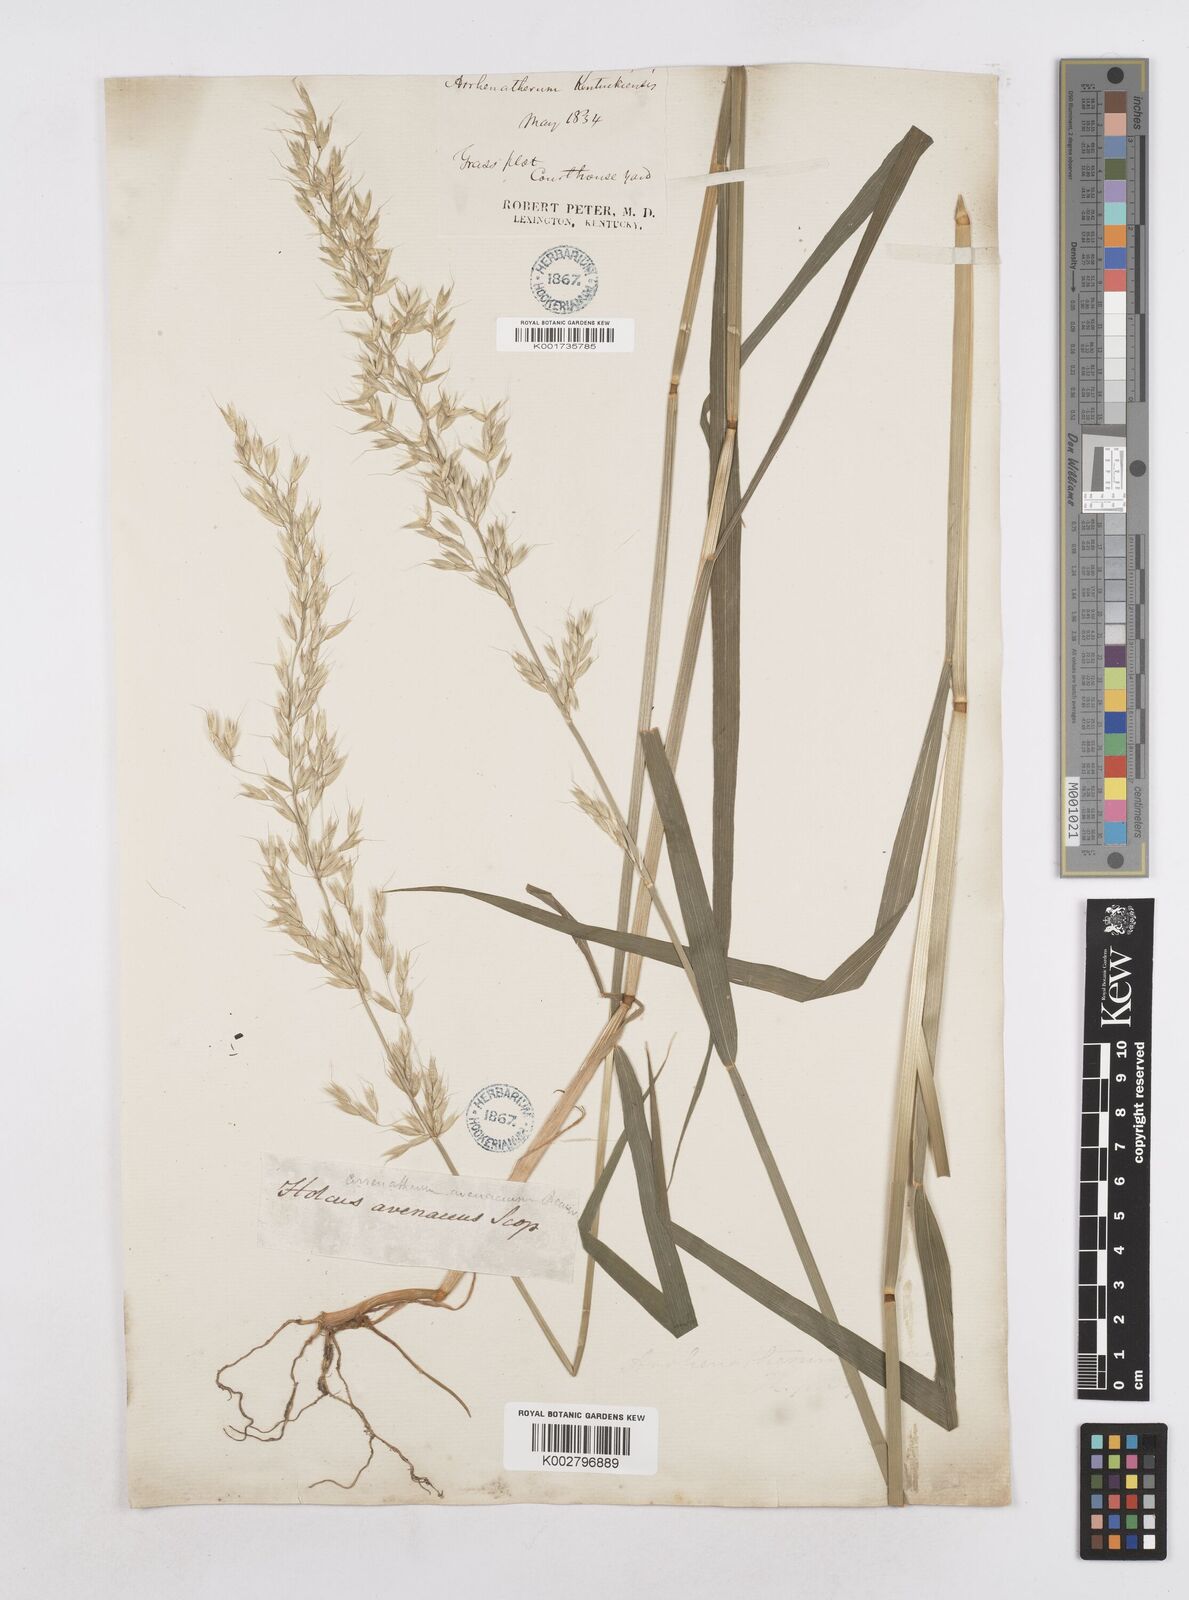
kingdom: Plantae
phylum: Tracheophyta
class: Liliopsida
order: Poales
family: Poaceae
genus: Arrhenatherum
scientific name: Arrhenatherum elatius
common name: Tall oatgrass
